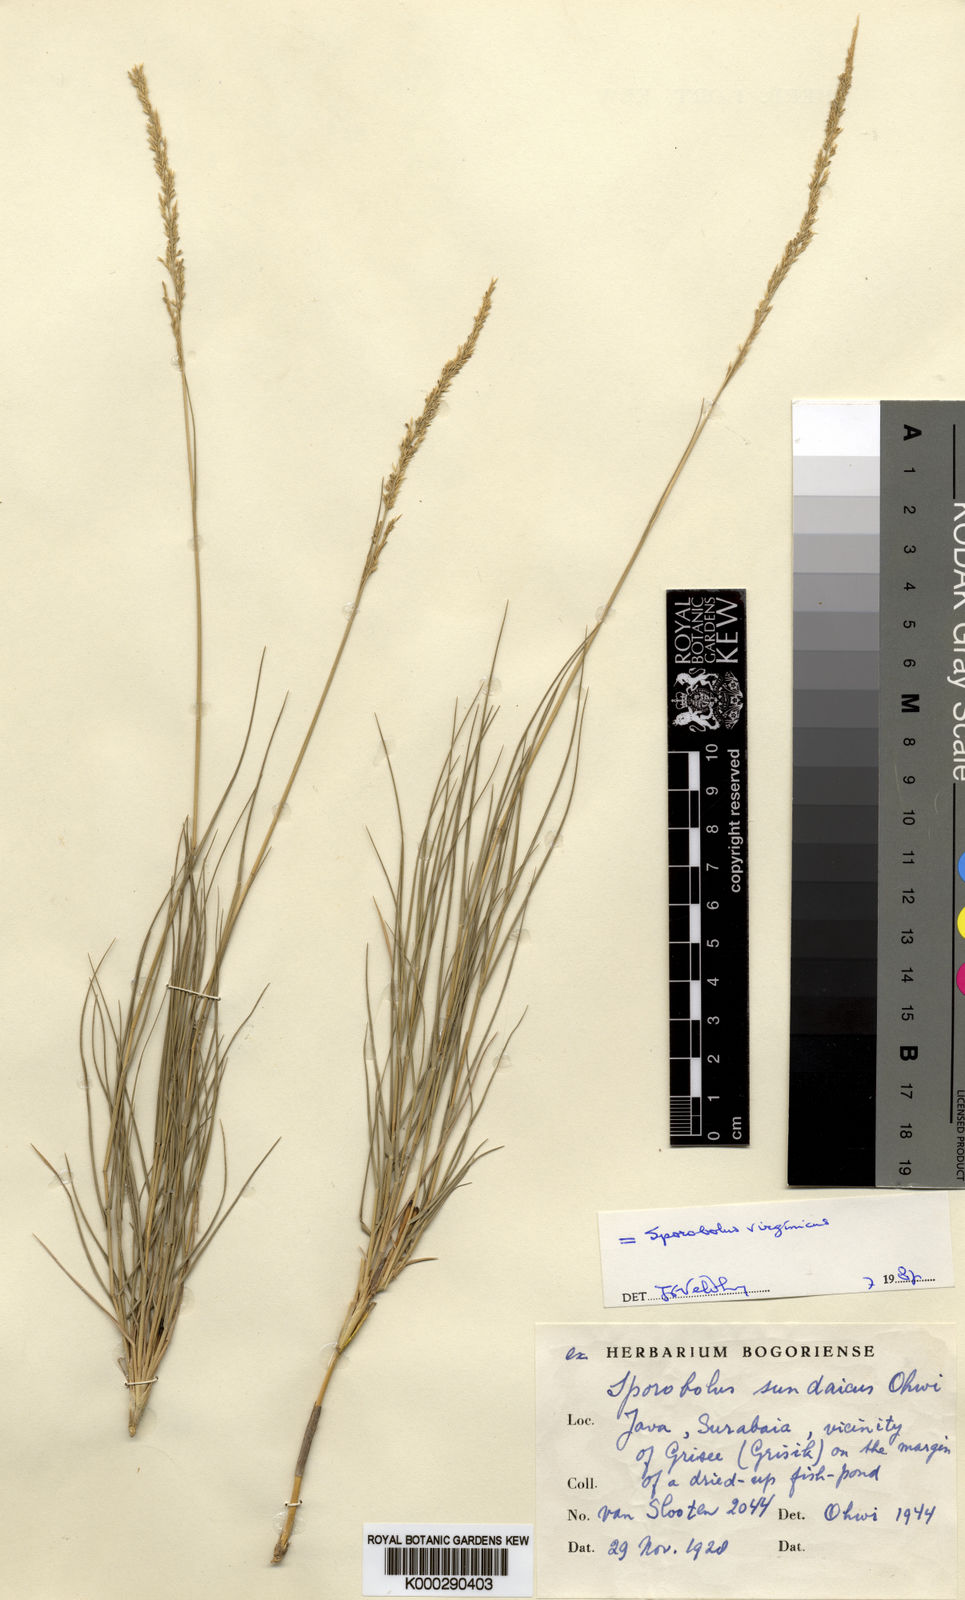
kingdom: Plantae
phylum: Tracheophyta
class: Liliopsida
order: Poales
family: Poaceae
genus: Sporobolus
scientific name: Sporobolus virginicus
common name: Beach dropseed
